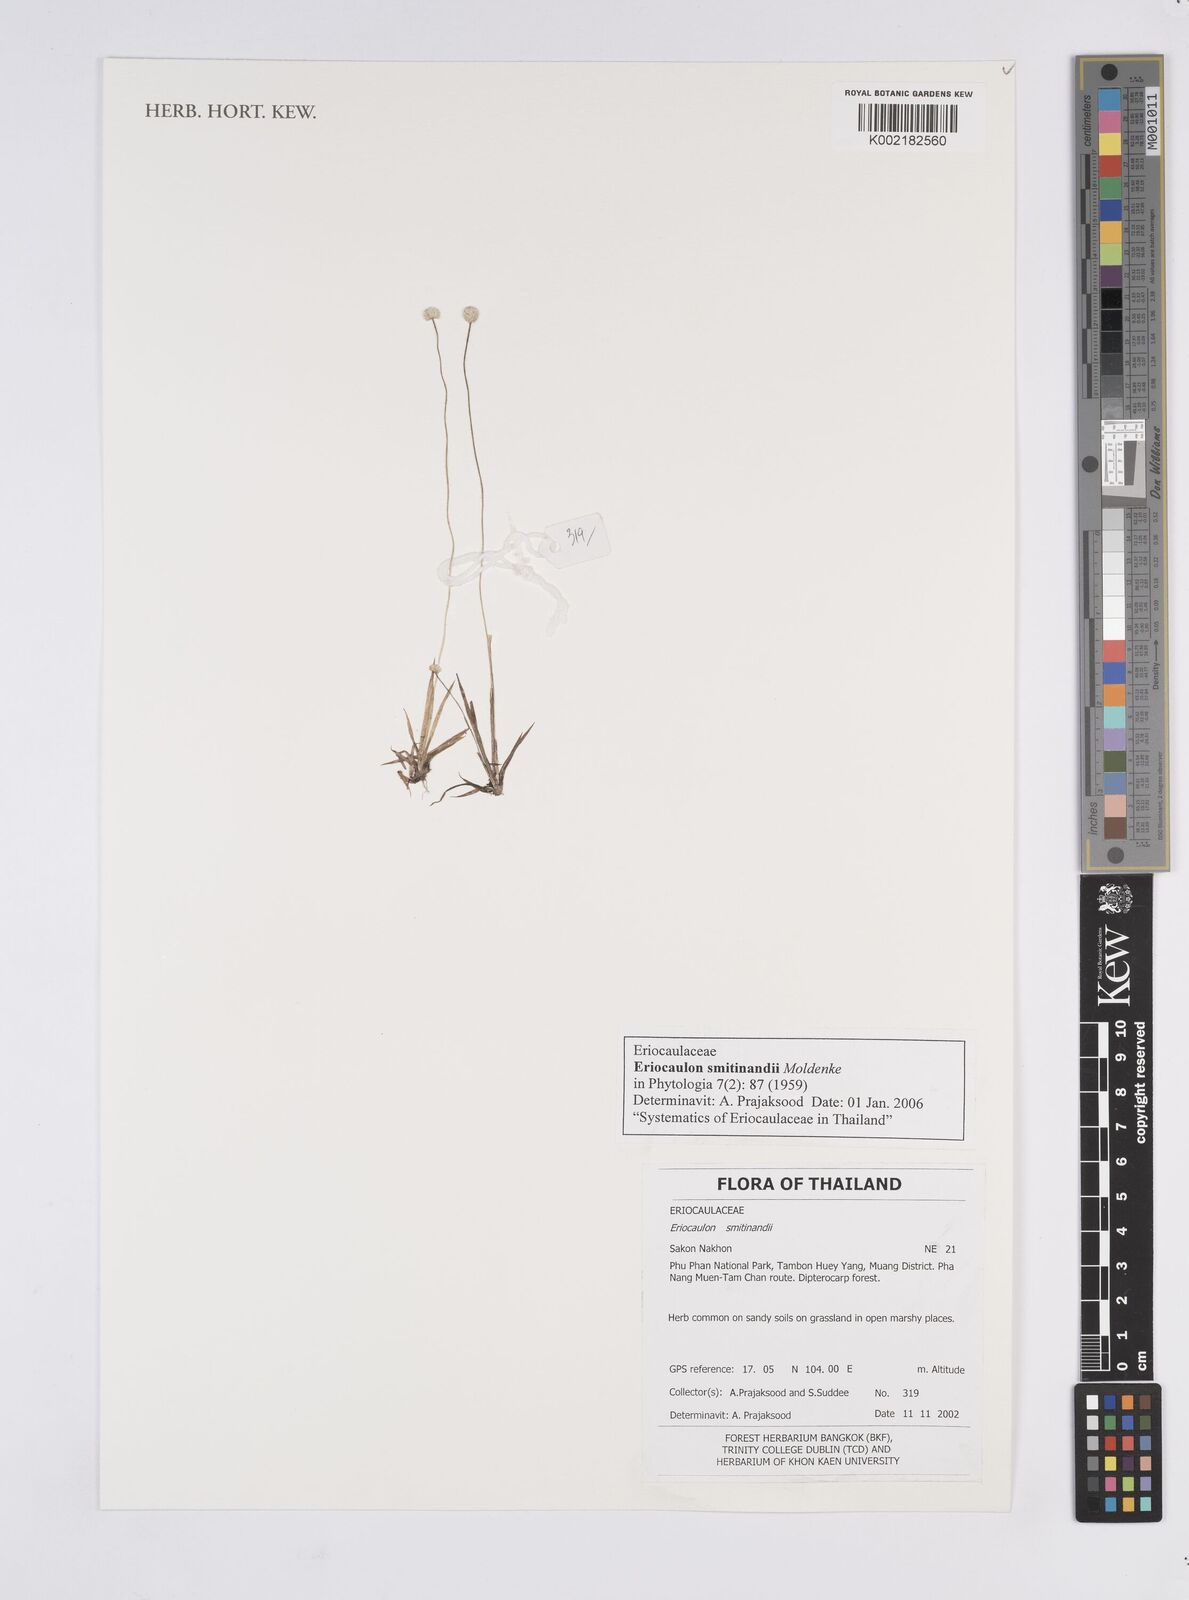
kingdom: Plantae
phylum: Tracheophyta
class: Liliopsida
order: Poales
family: Eriocaulaceae
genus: Eriocaulon
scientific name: Eriocaulon smitinandii
